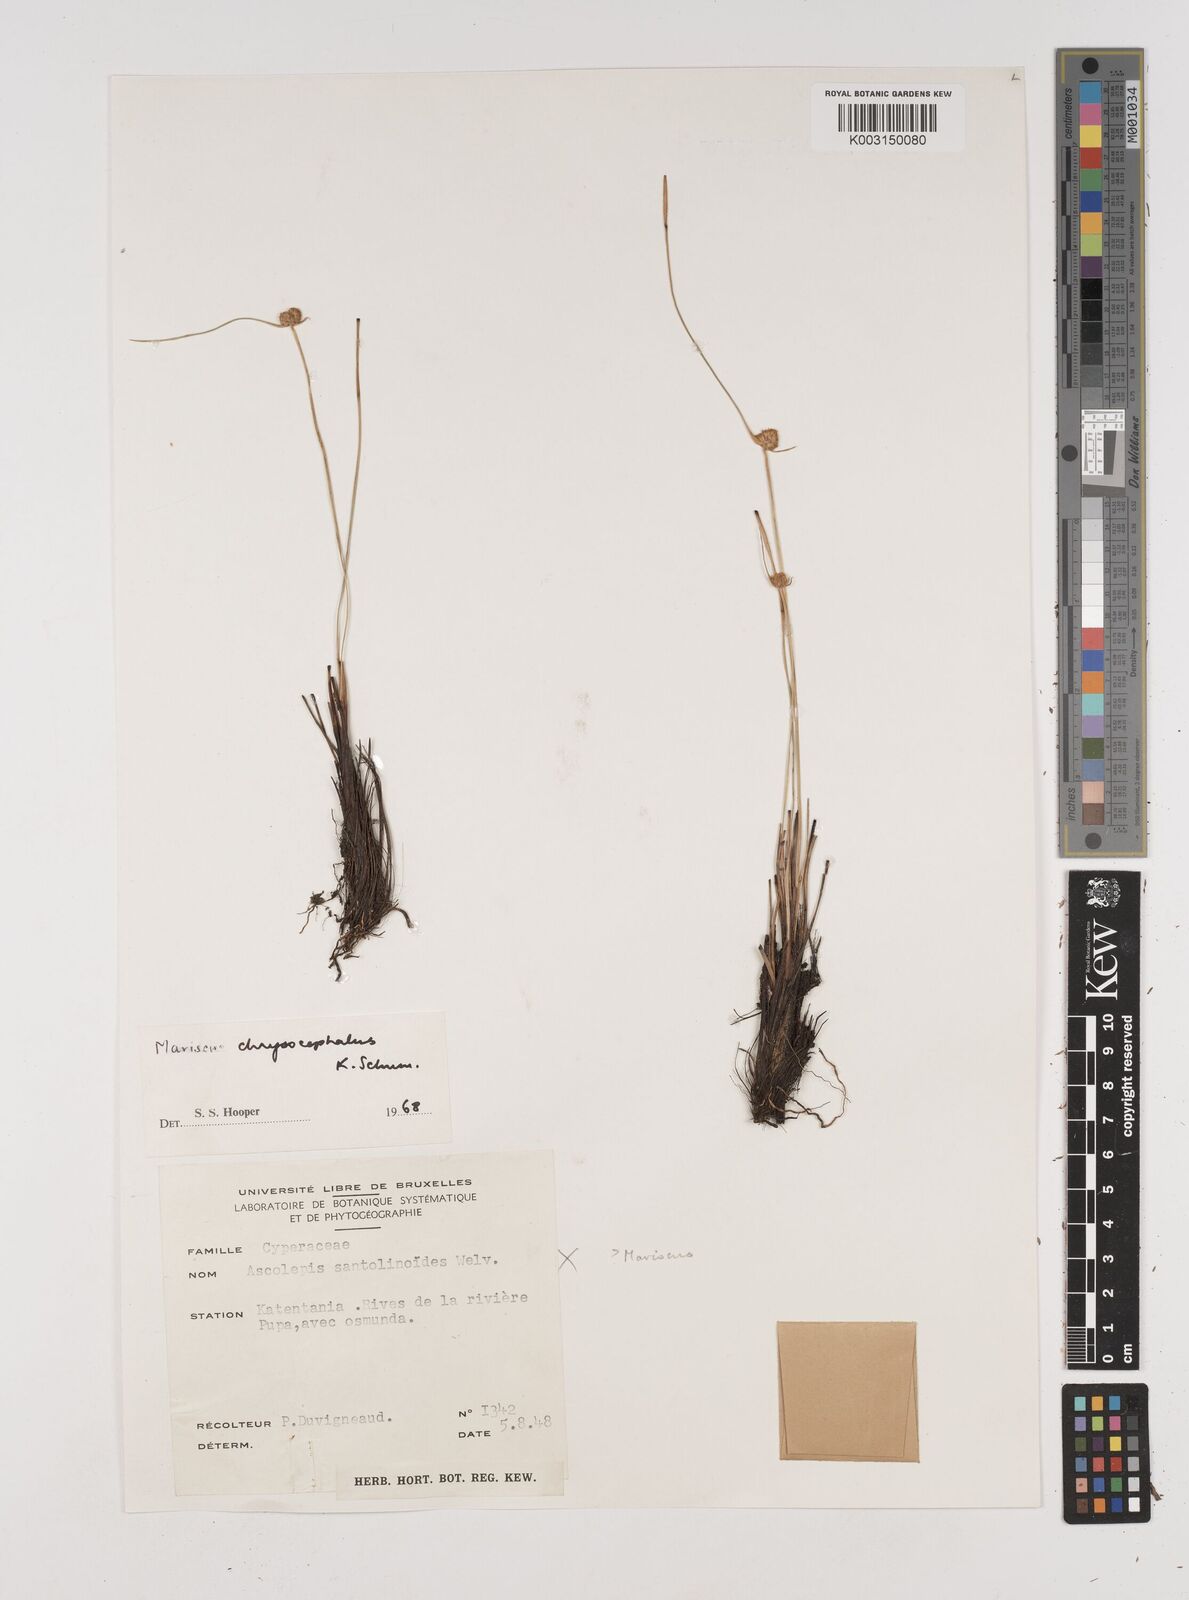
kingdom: Plantae
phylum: Tracheophyta
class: Liliopsida
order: Poales
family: Cyperaceae
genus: Cyperus
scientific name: Cyperus chrysocephalus
